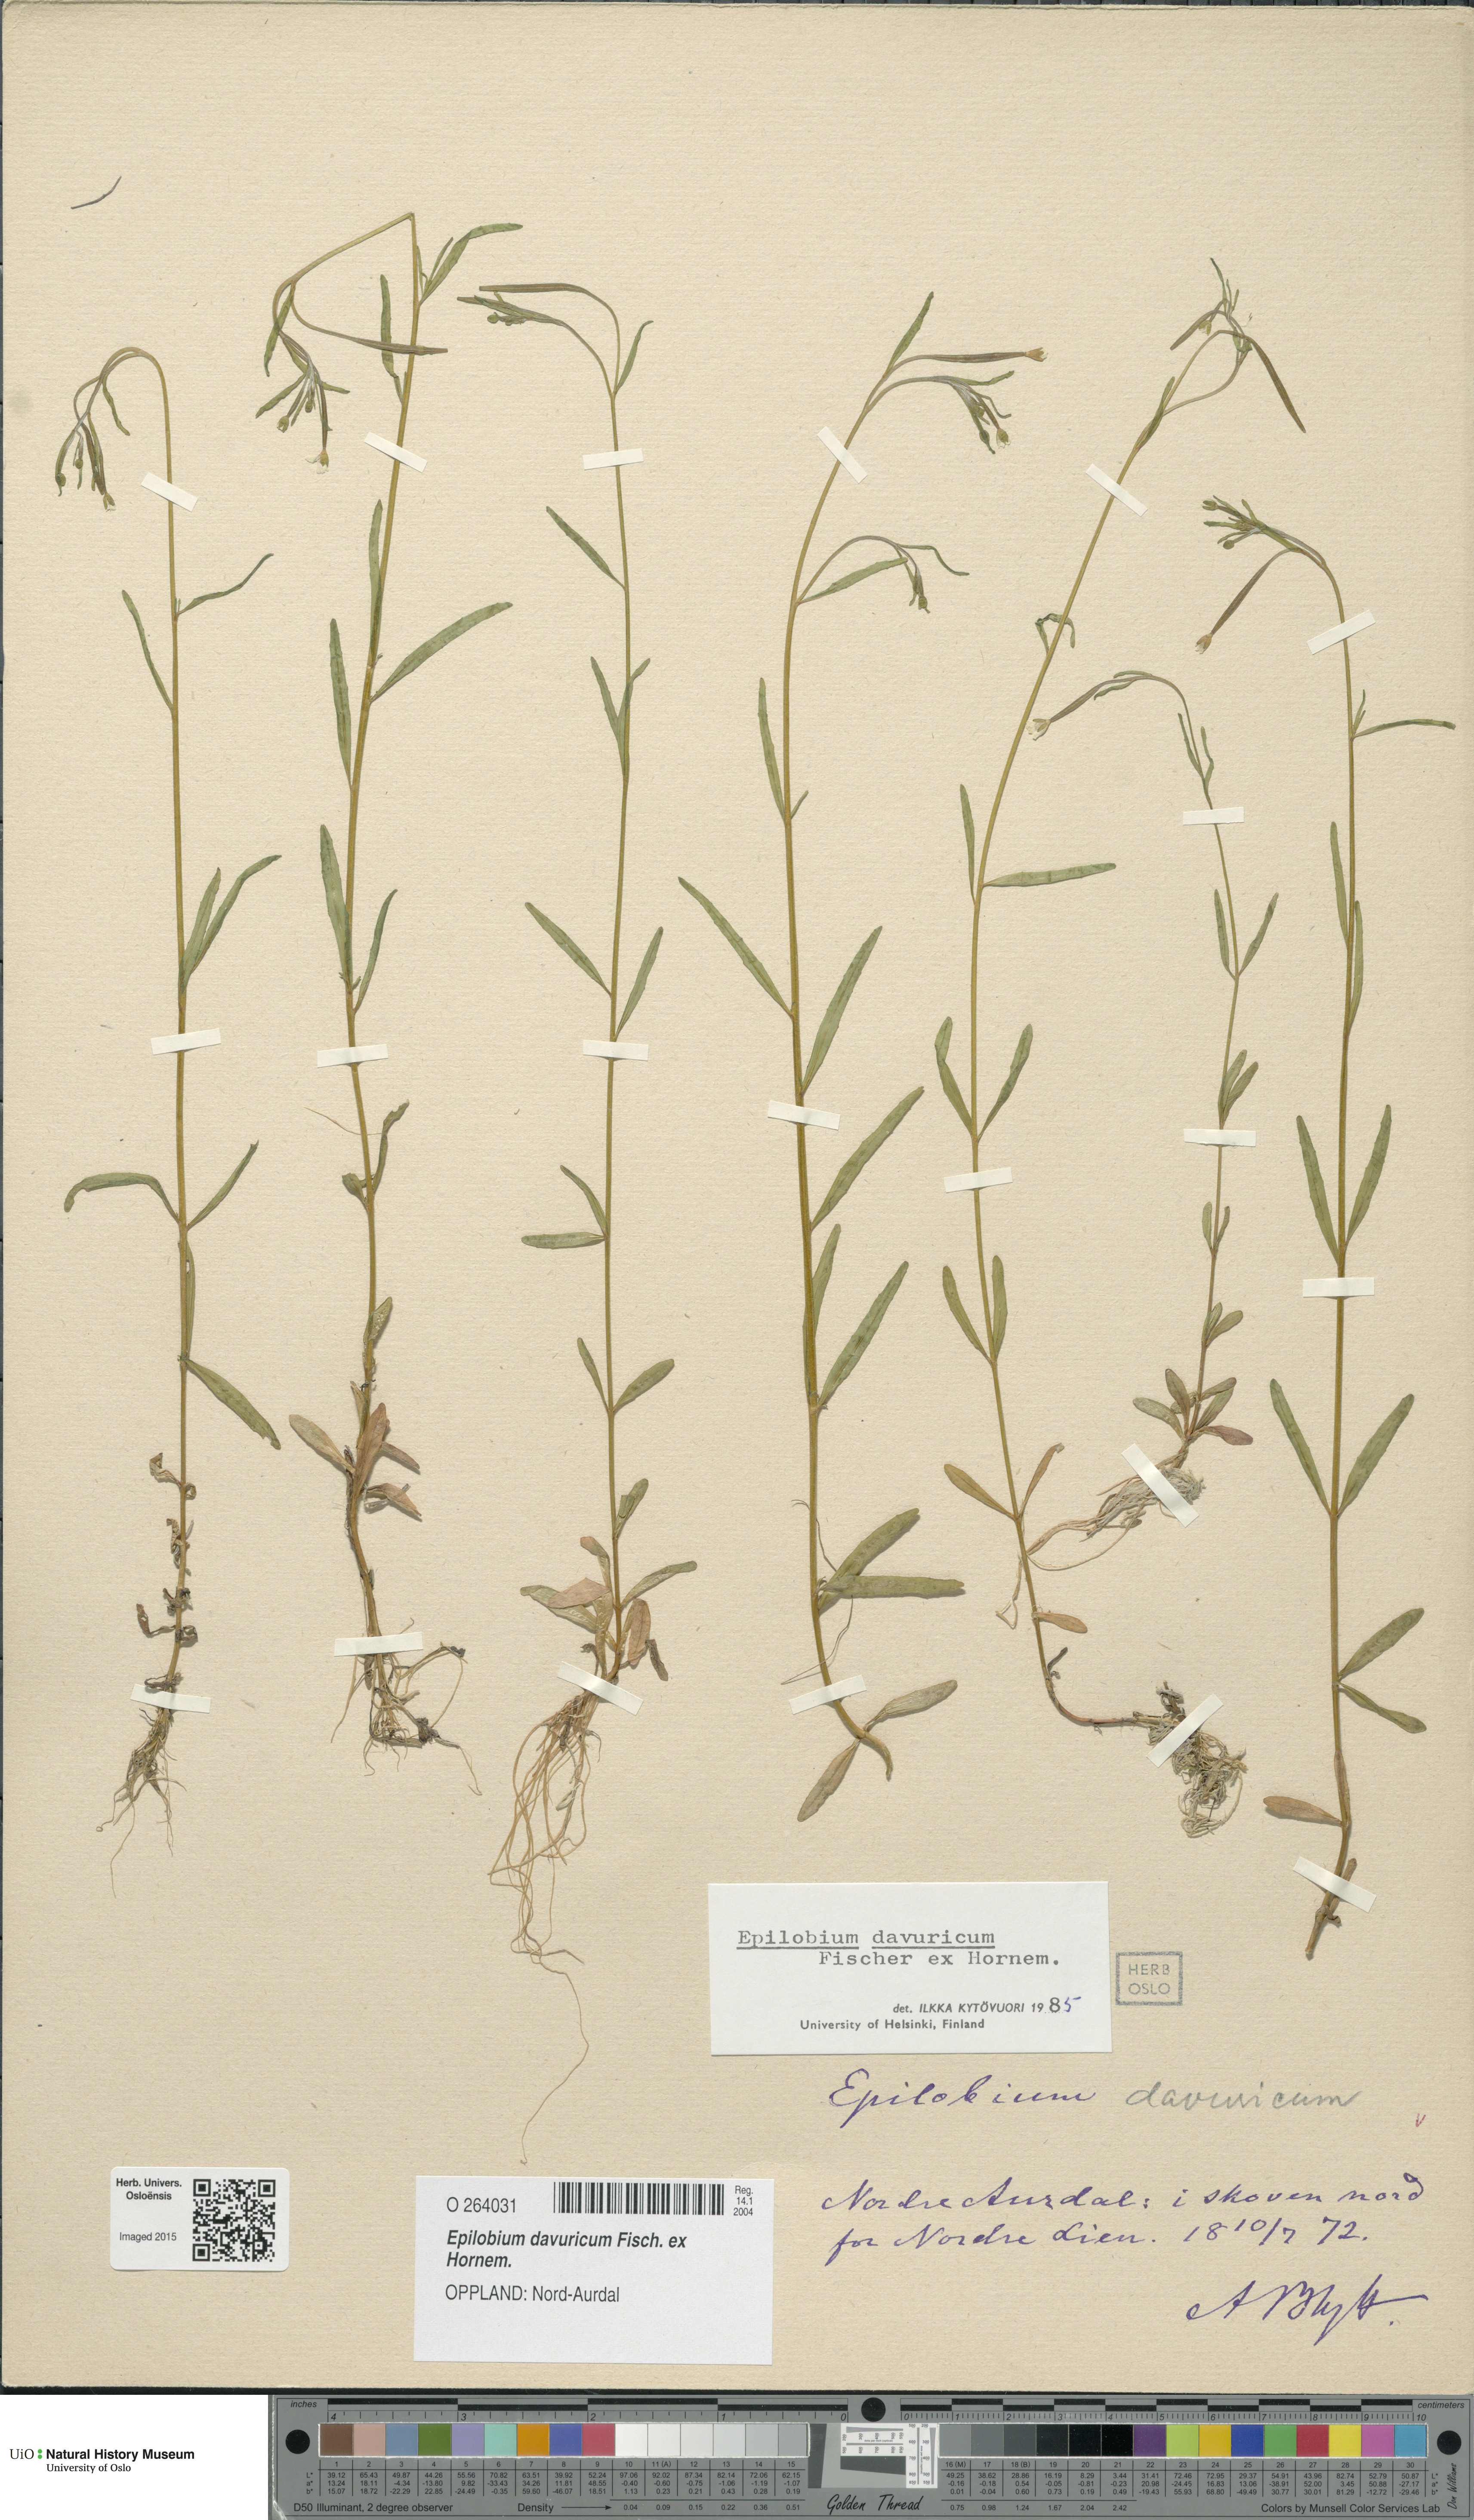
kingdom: Plantae
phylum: Tracheophyta
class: Magnoliopsida
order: Myrtales
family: Onagraceae
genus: Epilobium
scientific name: Epilobium davuricum
